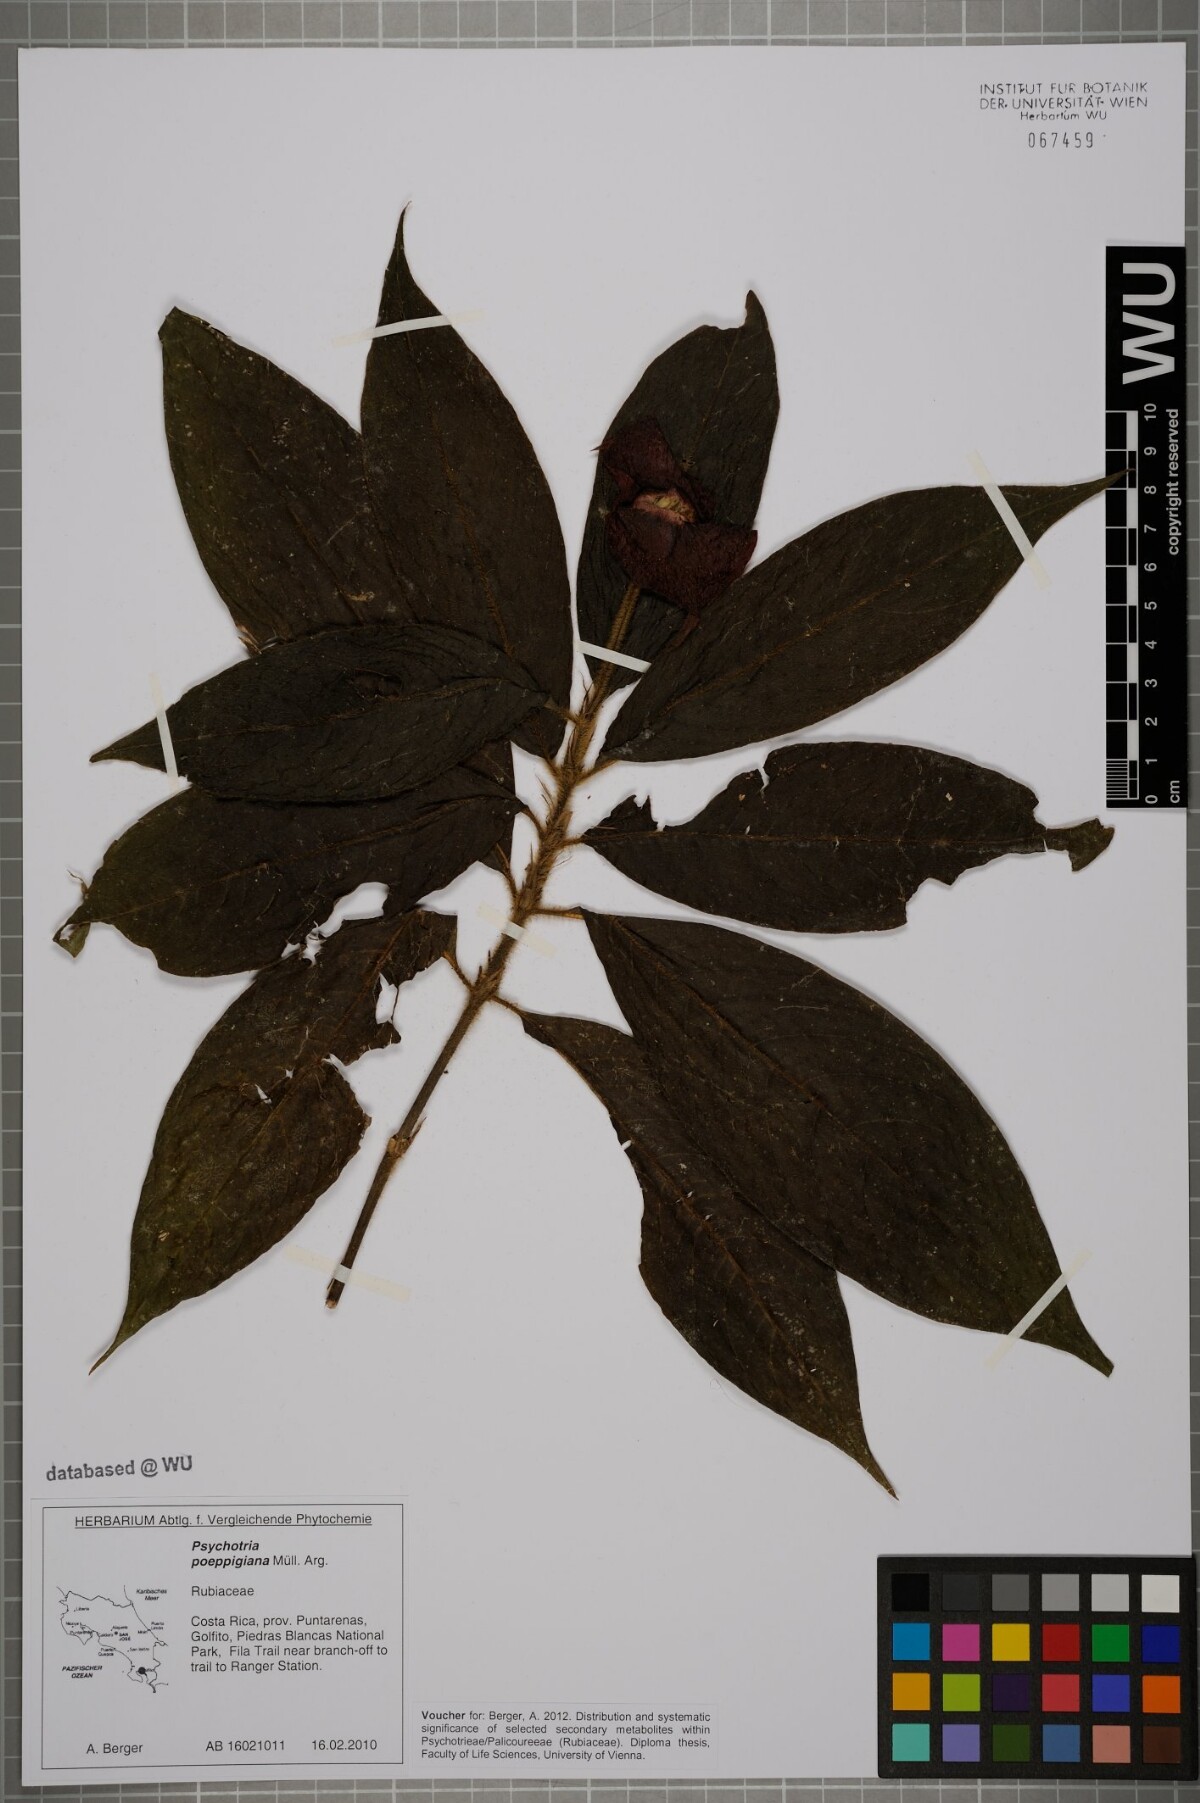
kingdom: Plantae
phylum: Tracheophyta
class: Magnoliopsida
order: Gentianales
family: Rubiaceae
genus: Palicourea
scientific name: Palicourea tomentosa
